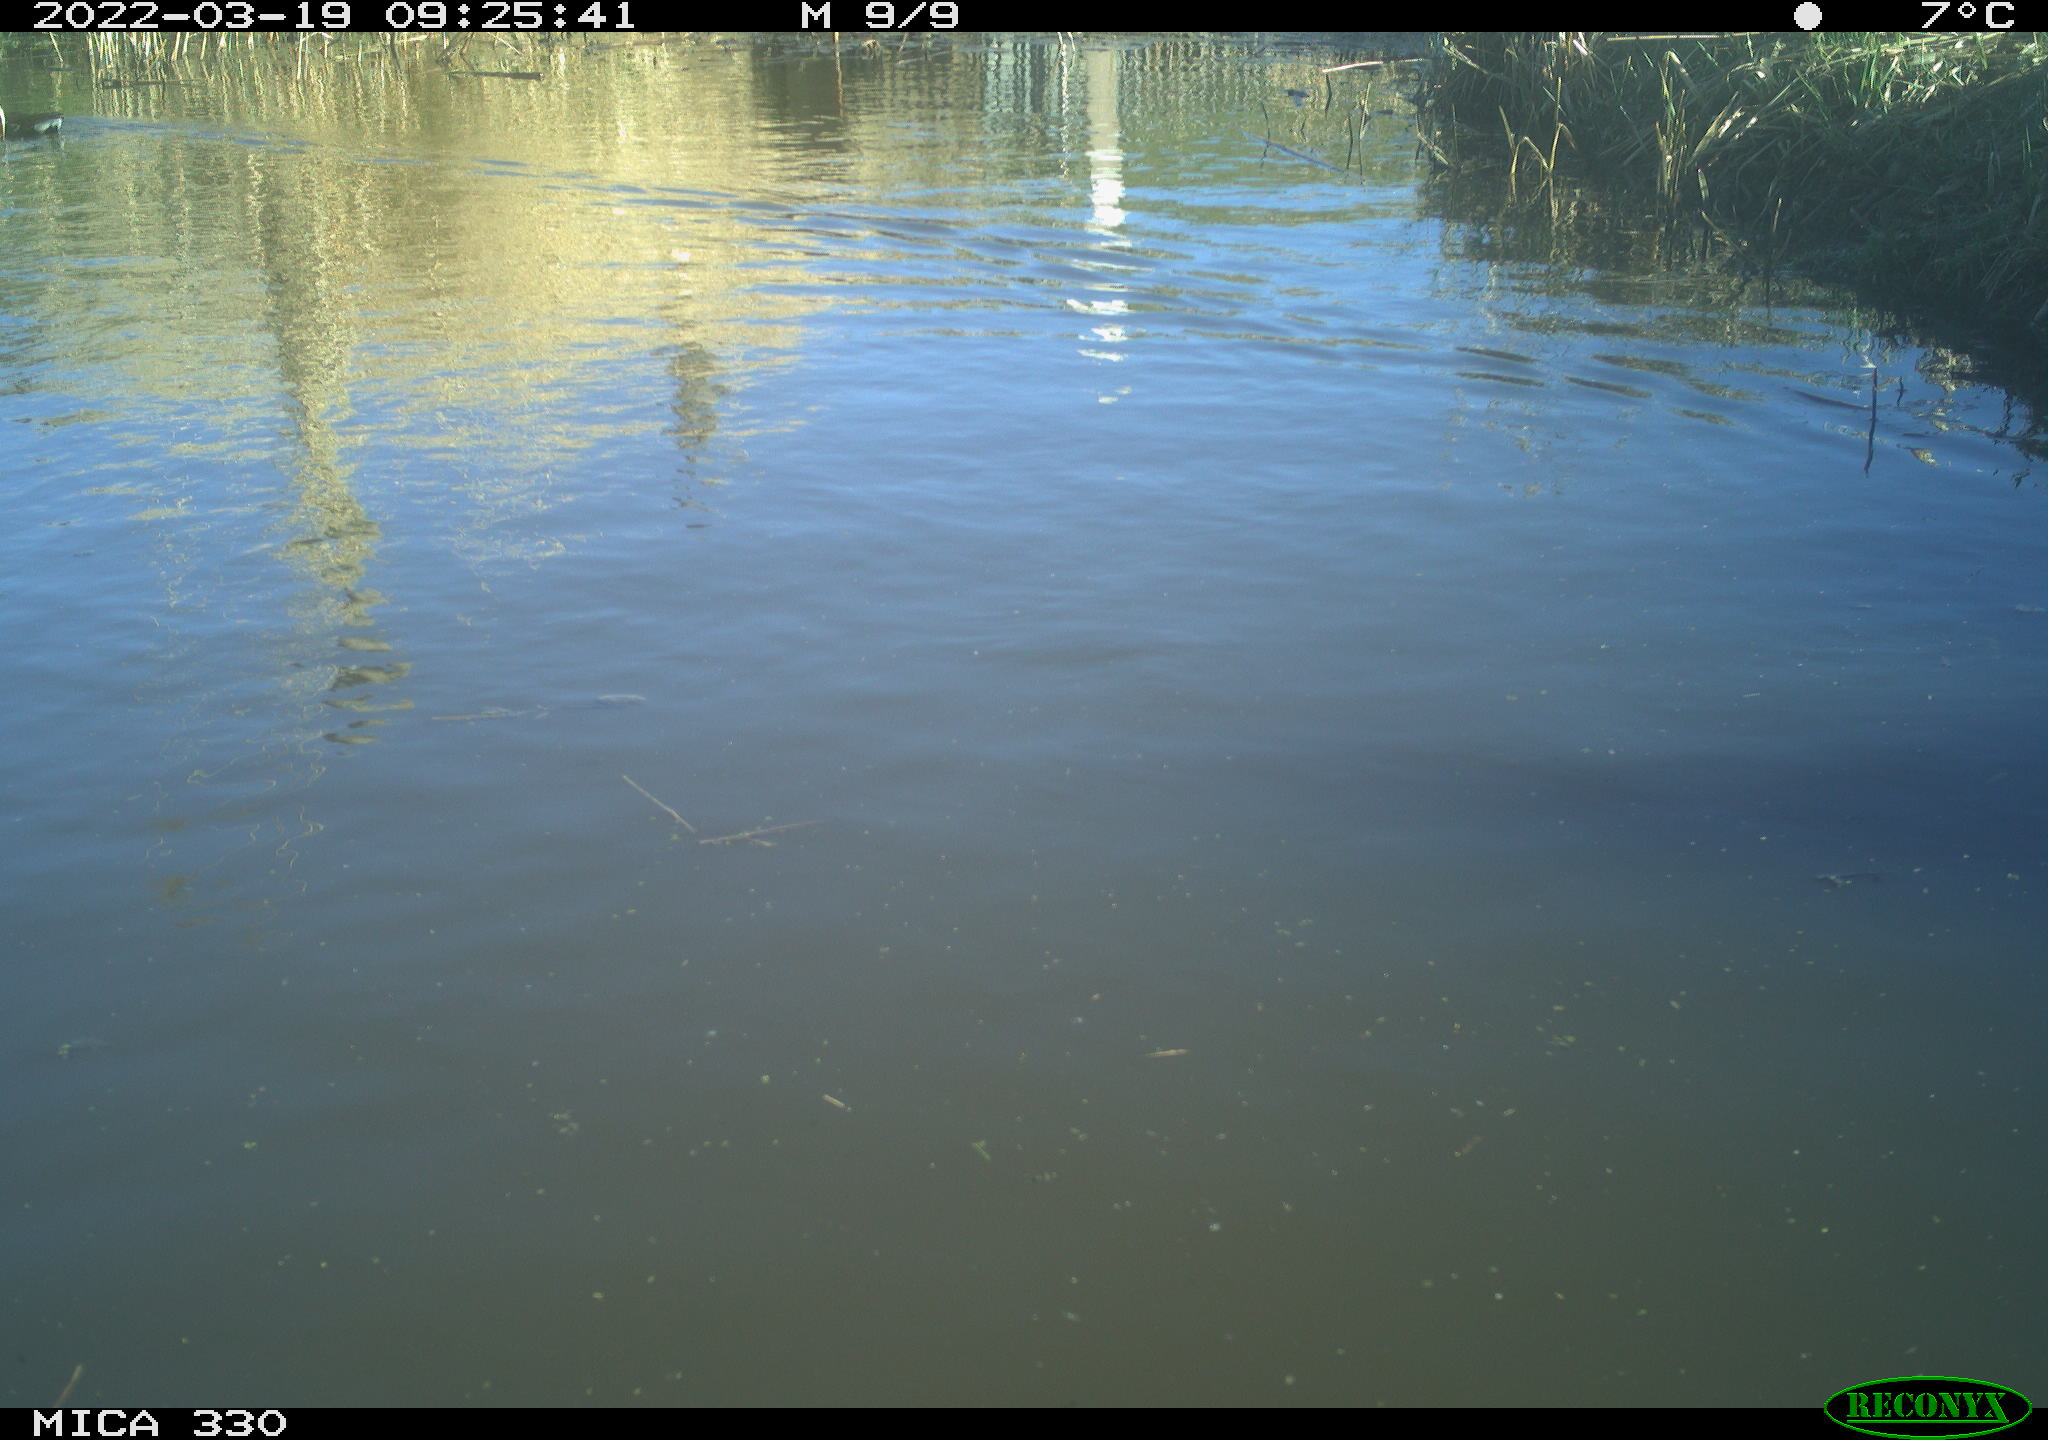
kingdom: Animalia
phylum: Chordata
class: Aves
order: Gruiformes
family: Rallidae
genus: Gallinula
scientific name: Gallinula chloropus
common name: Common moorhen
